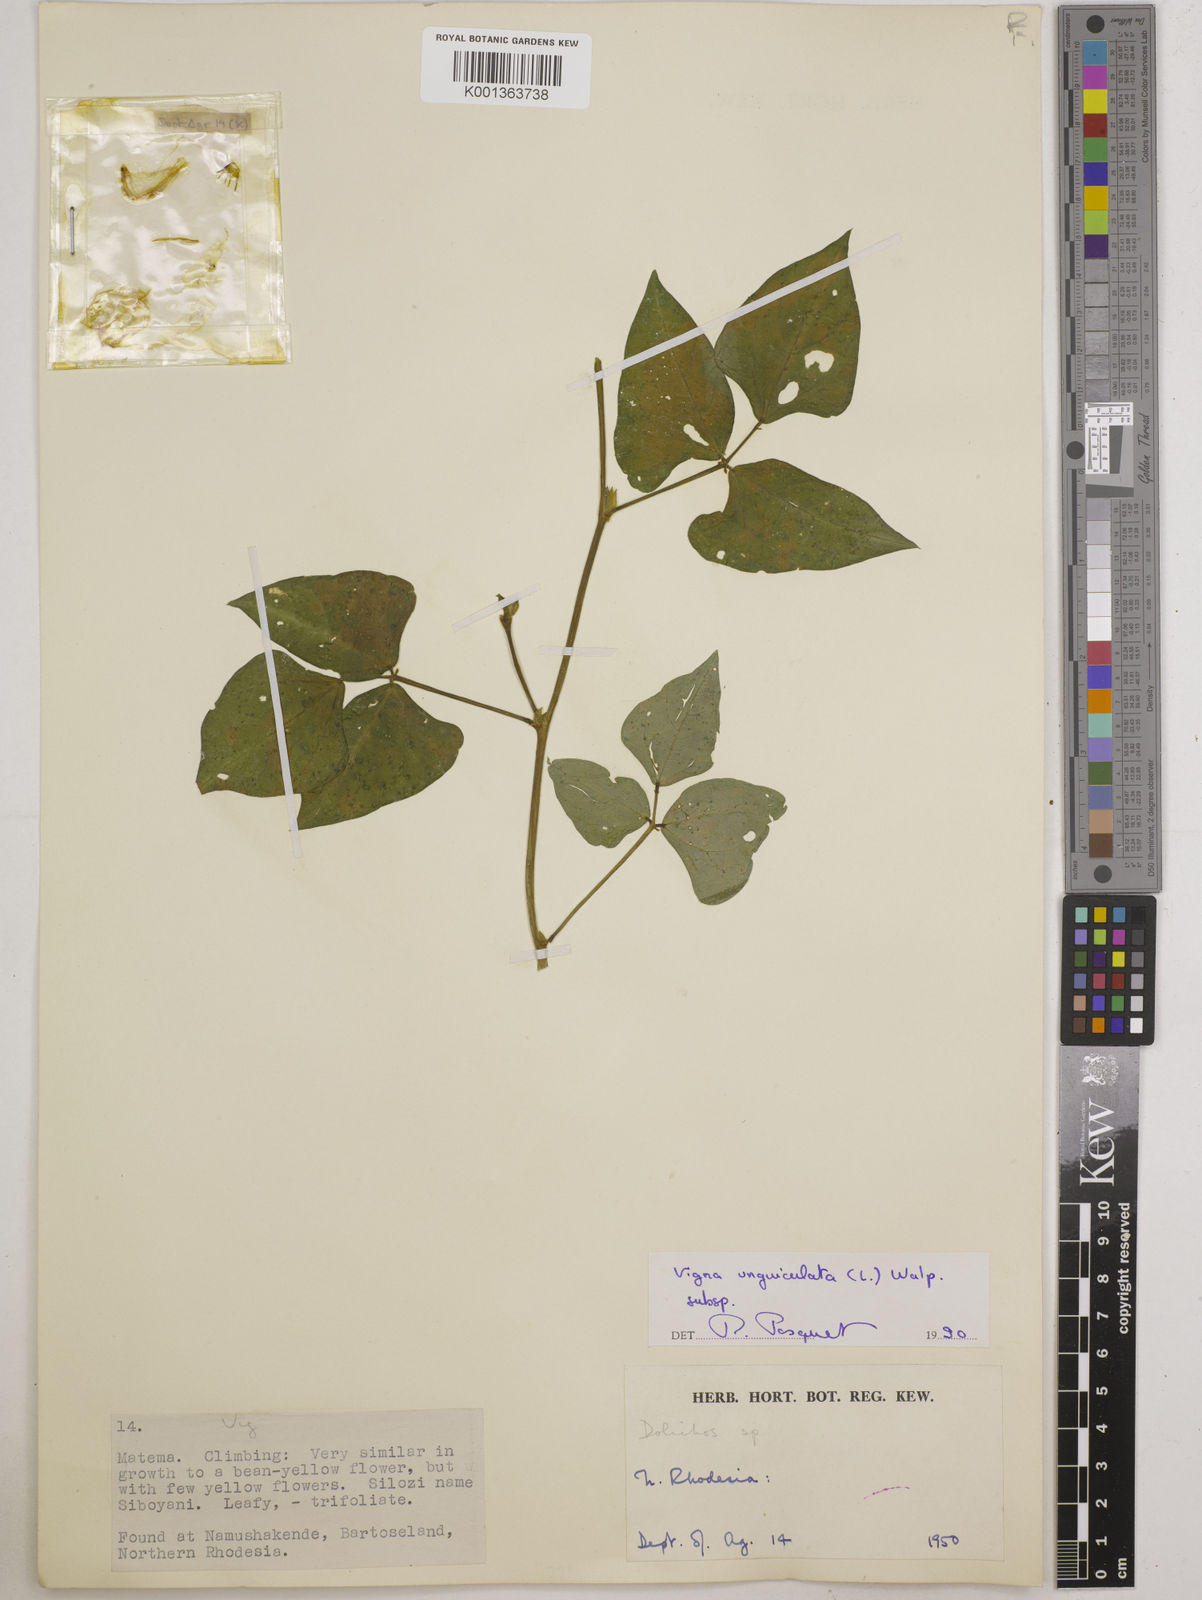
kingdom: Plantae
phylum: Tracheophyta
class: Magnoliopsida
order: Fabales
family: Fabaceae
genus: Vigna
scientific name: Vigna unguiculata
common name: Cowpea
